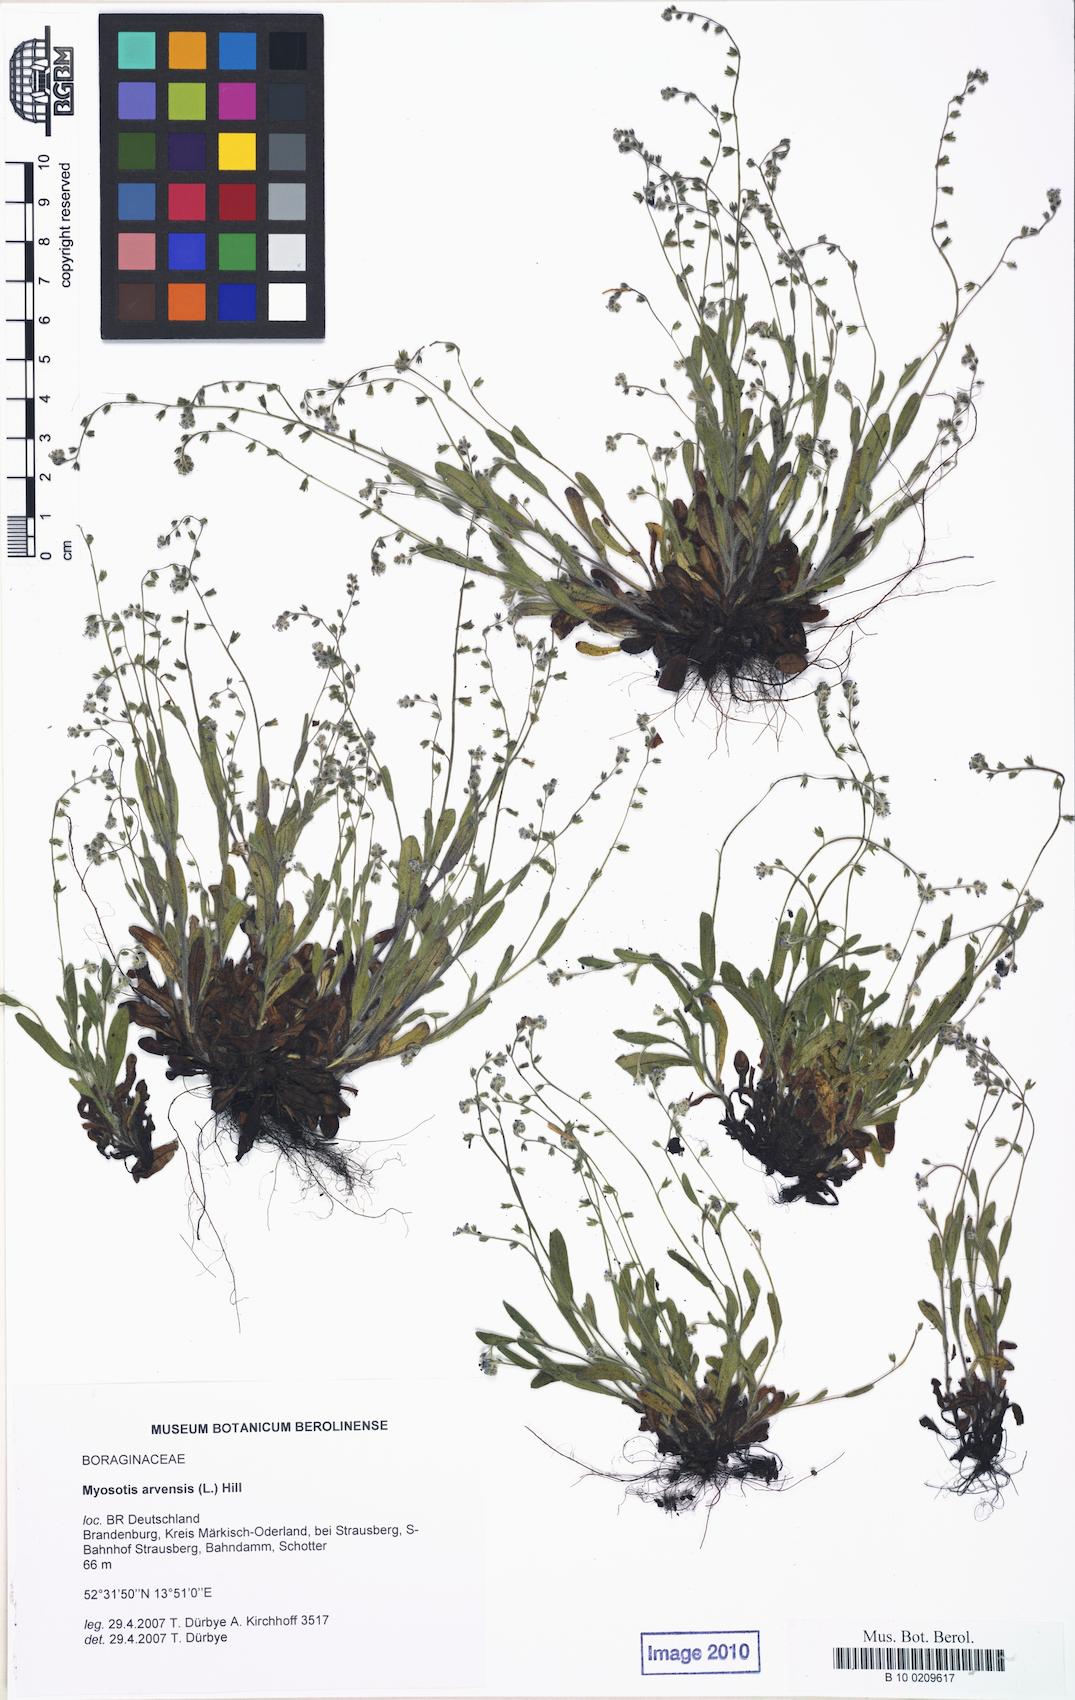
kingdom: Plantae
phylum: Tracheophyta
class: Magnoliopsida
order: Boraginales
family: Boraginaceae
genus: Myosotis
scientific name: Myosotis ramosissima
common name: Early forget-me-not
